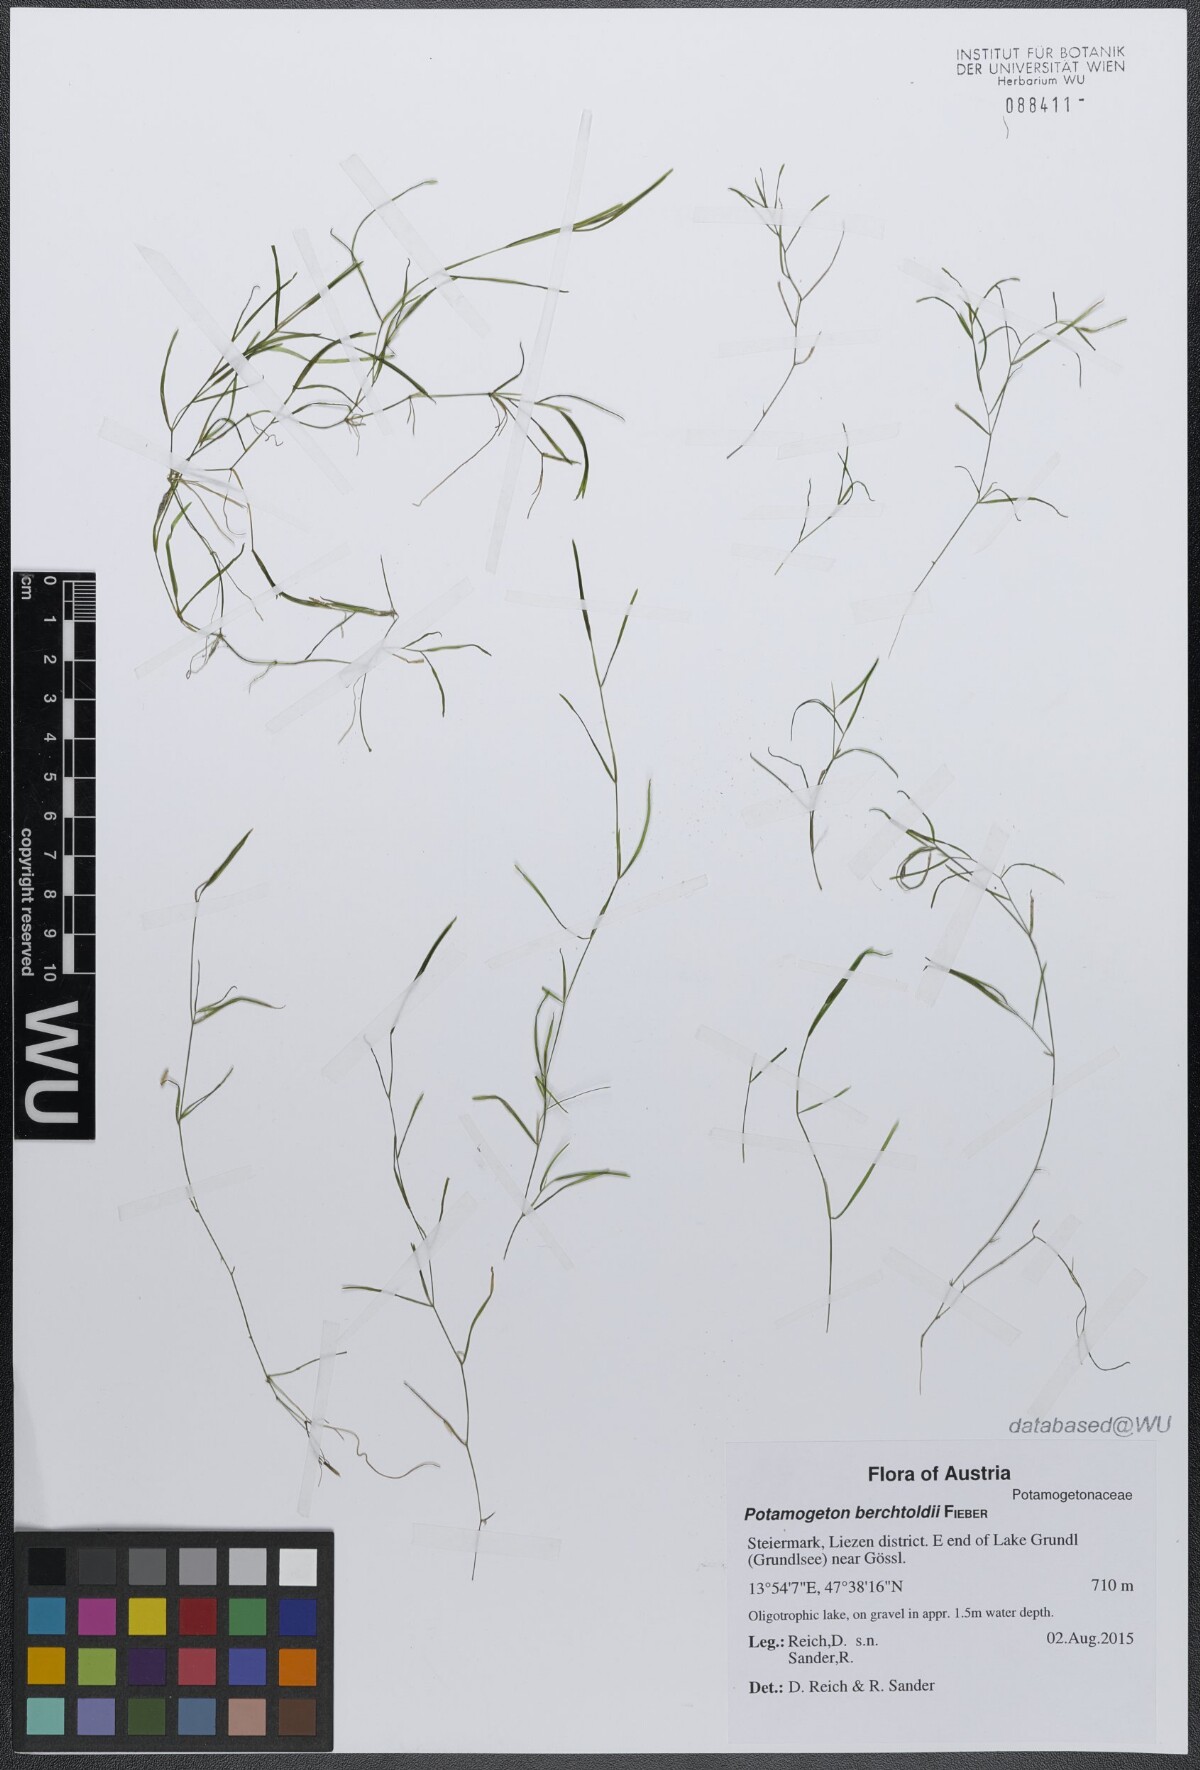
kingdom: Plantae
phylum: Tracheophyta
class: Liliopsida
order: Alismatales
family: Potamogetonaceae
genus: Potamogeton
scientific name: Potamogeton berchtoldii
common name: Small pondweed
